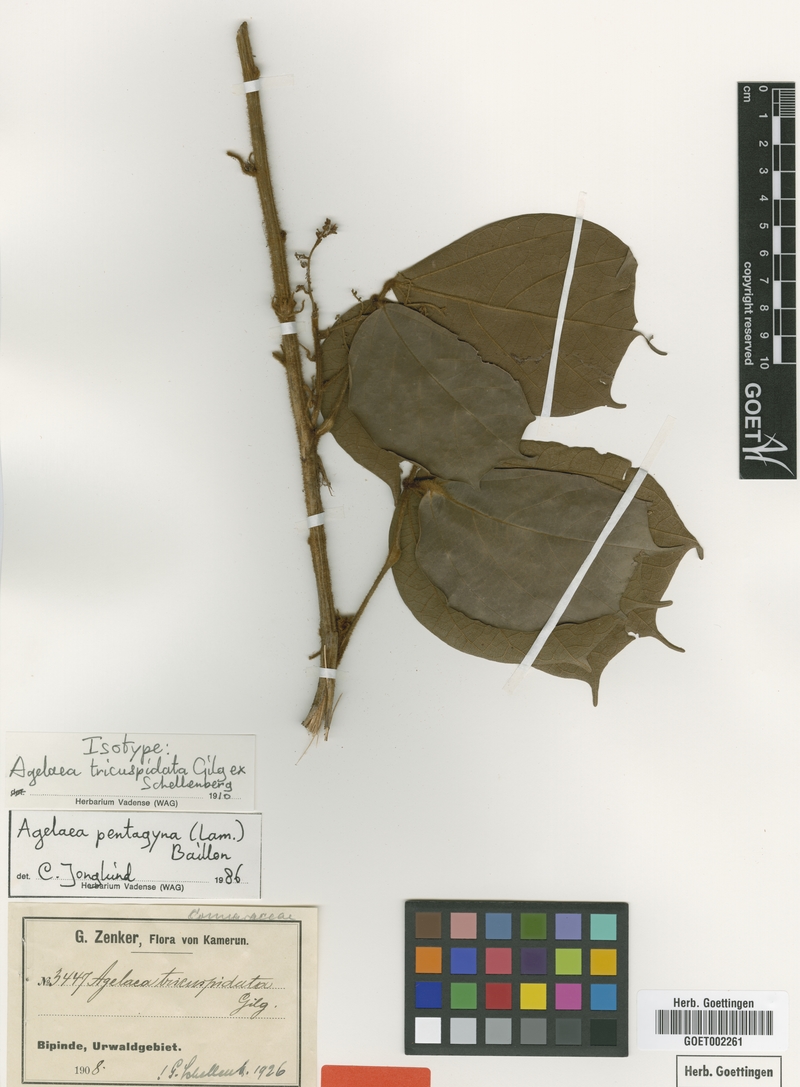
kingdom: Plantae
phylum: Tracheophyta
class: Magnoliopsida
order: Oxalidales
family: Connaraceae
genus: Agelaea
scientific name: Agelaea pentagyna
